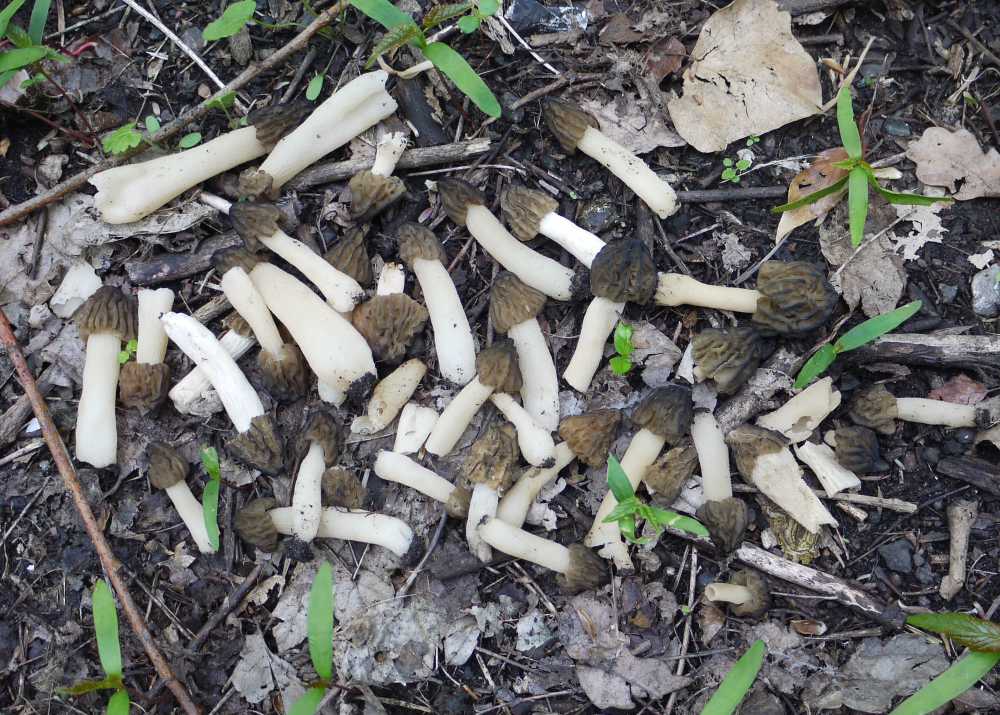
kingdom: Fungi
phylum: Ascomycota
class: Pezizomycetes
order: Pezizales
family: Morchellaceae
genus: Morchella
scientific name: Morchella semilibera
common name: hætte-morkel
